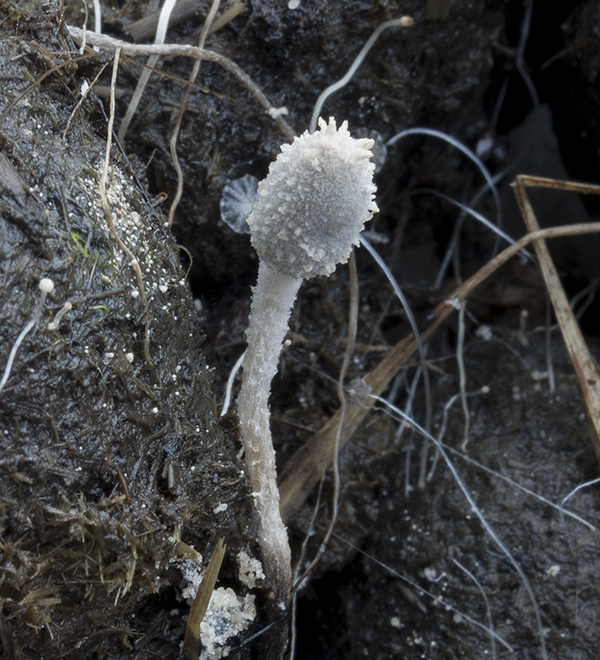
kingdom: Fungi
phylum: Basidiomycota
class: Agaricomycetes
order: Agaricales
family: Psathyrellaceae
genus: Coprinopsis
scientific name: Coprinopsis trispora
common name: tresporet blækhat
